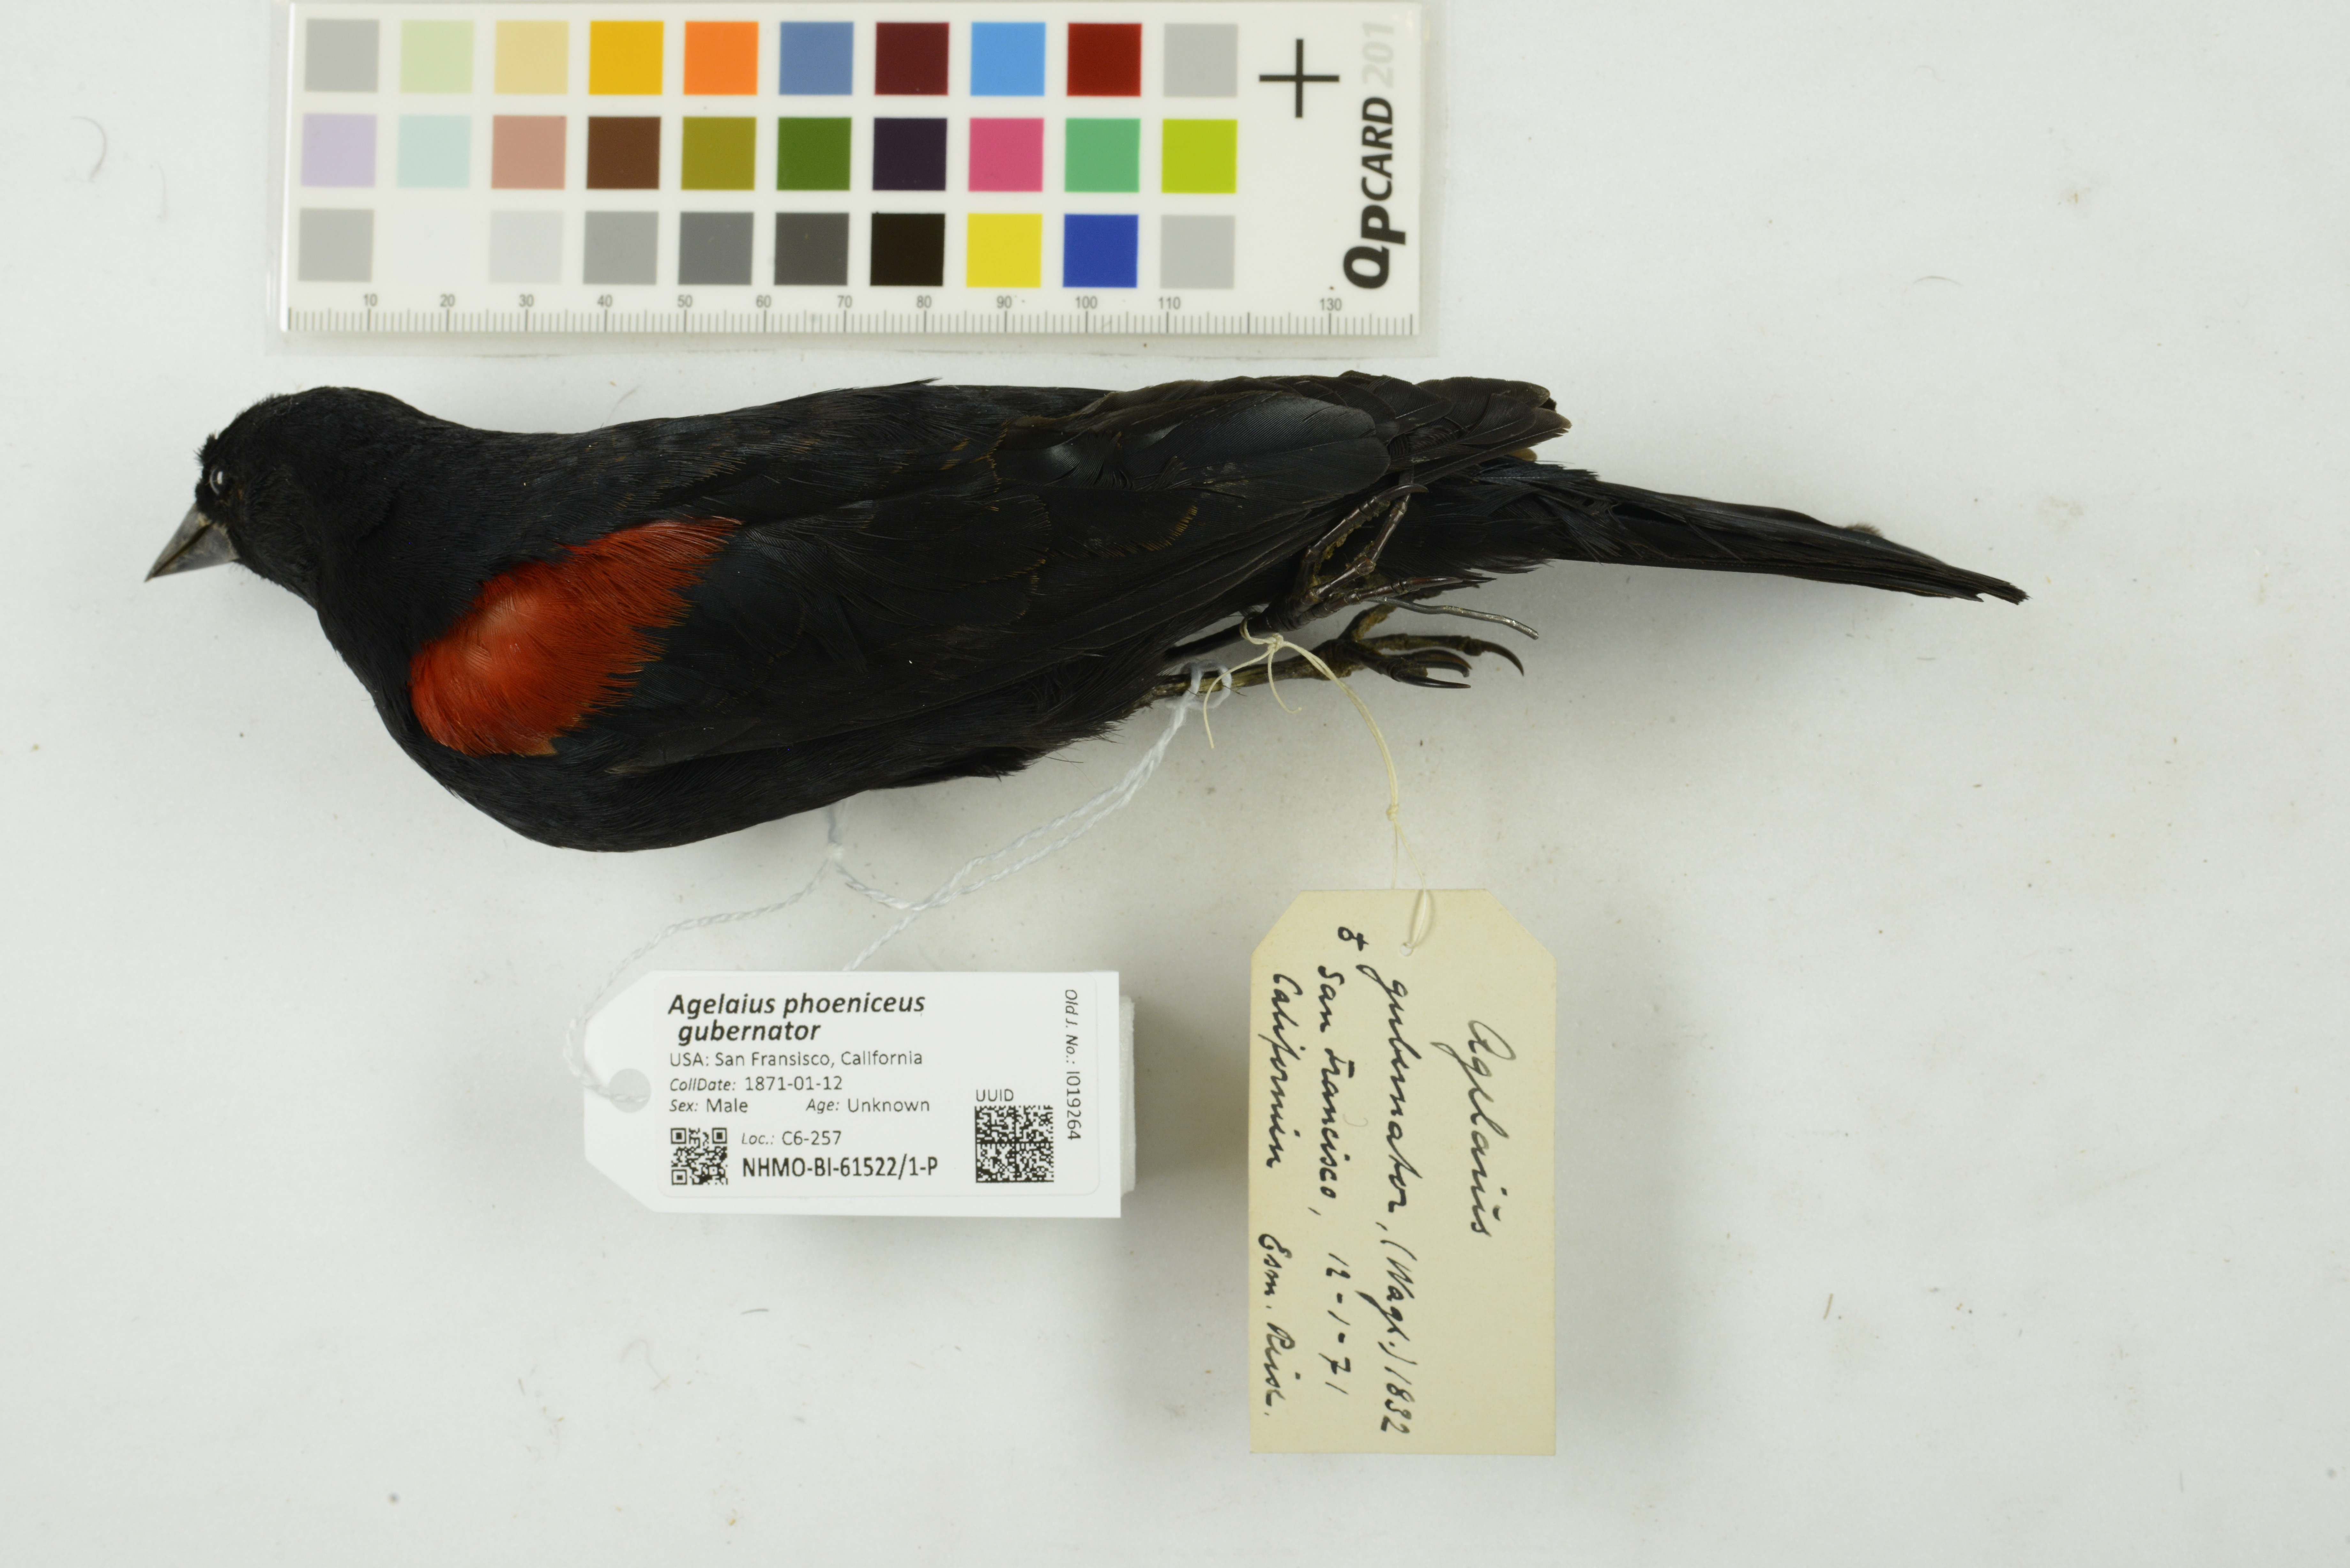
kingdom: Animalia
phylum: Chordata
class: Aves
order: Passeriformes
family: Icteridae
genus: Agelaius
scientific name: Agelaius phoeniceus
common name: Red-winged blackbird
